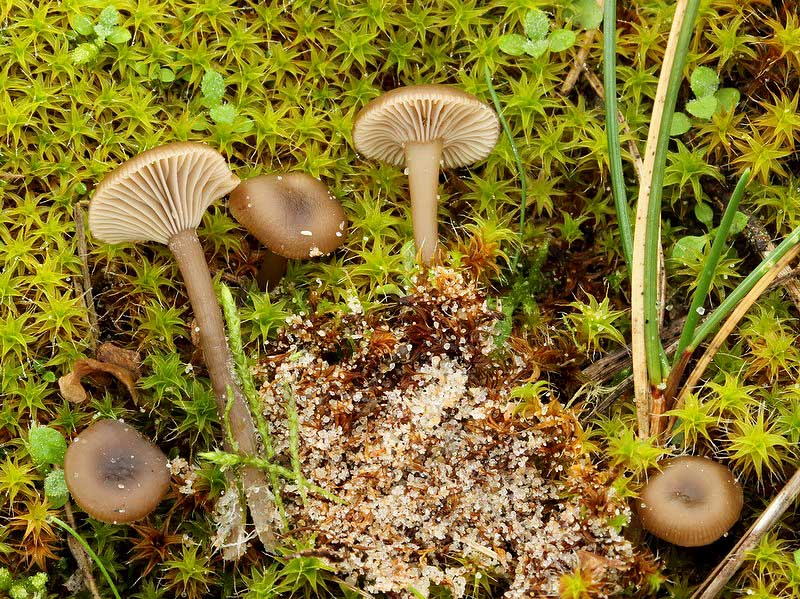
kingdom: Fungi
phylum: Basidiomycota
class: Agaricomycetes
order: Agaricales
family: Tricholomataceae
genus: Clitocybe
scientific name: Clitocybe barbularum
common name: klit-tragthat
